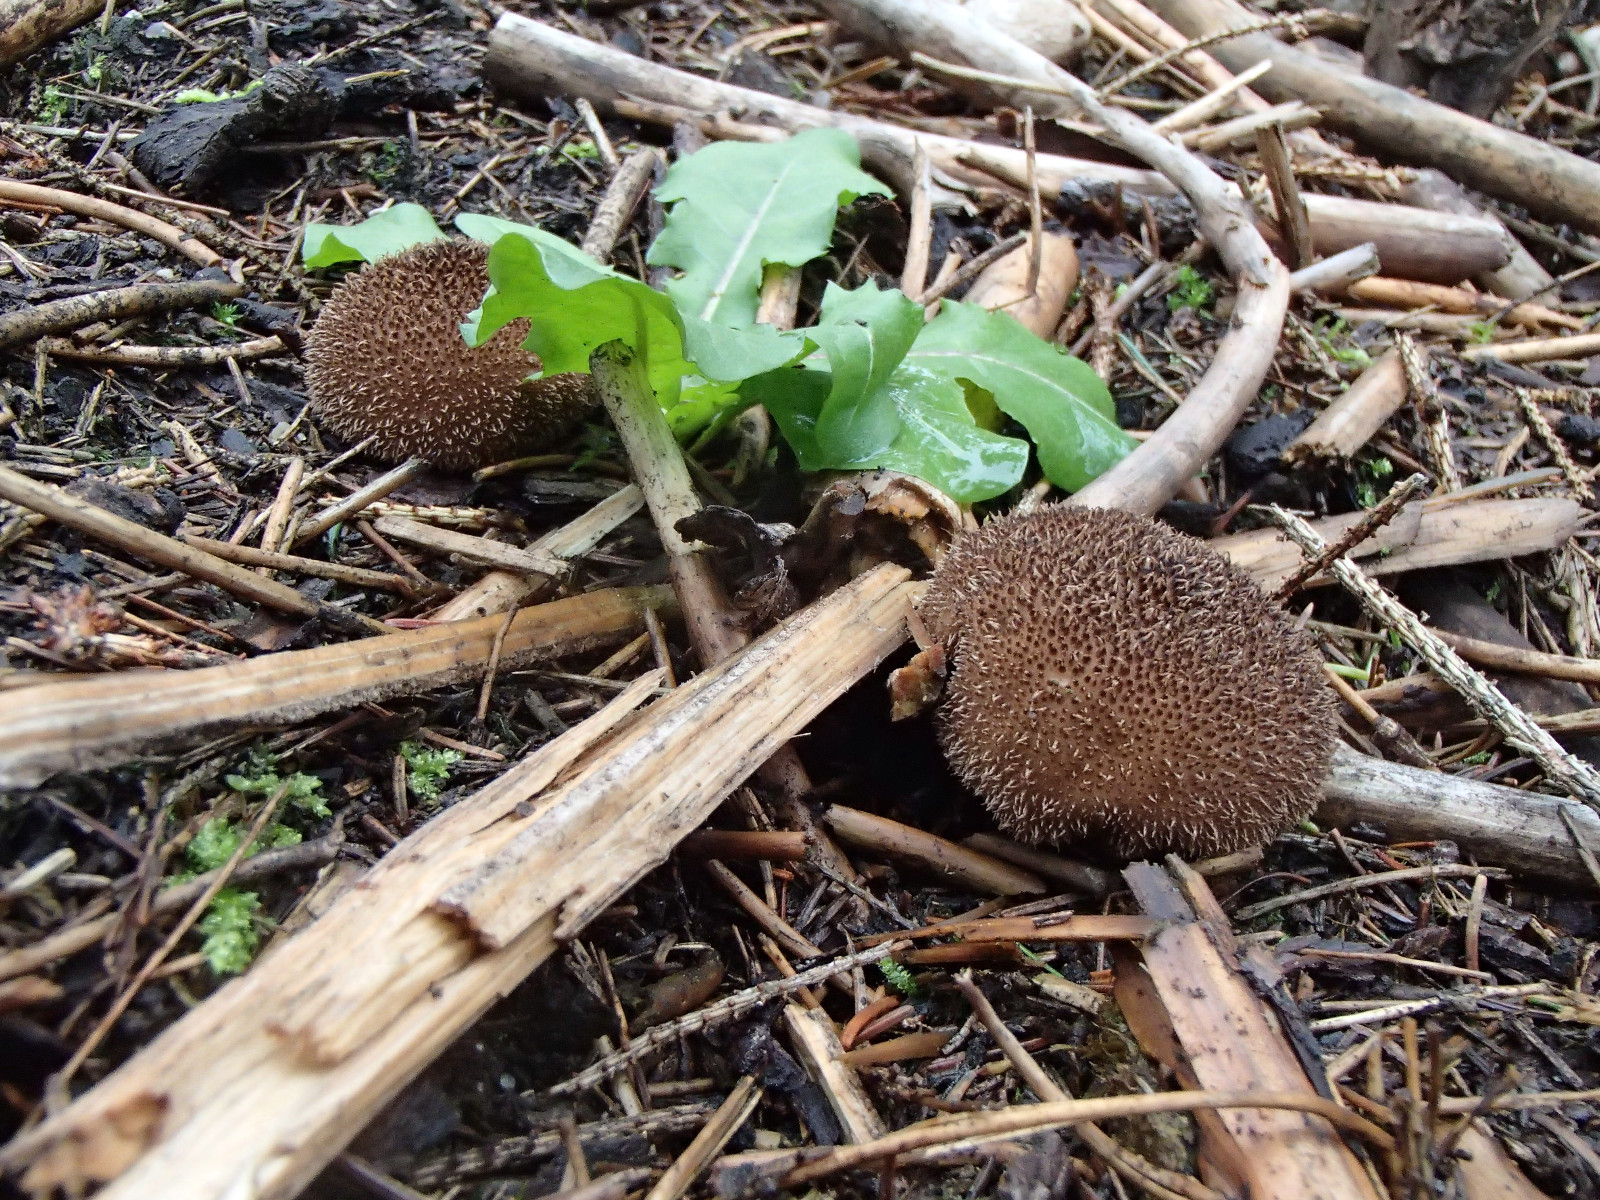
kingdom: Fungi
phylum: Basidiomycota
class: Agaricomycetes
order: Agaricales
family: Lycoperdaceae
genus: Lycoperdon
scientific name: Lycoperdon nigrescens
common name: sortagtig støvbold
